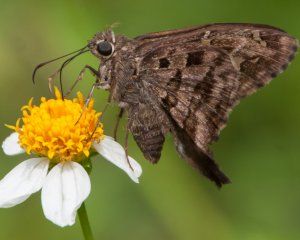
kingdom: Animalia
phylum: Arthropoda
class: Insecta
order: Lepidoptera
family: Hesperiidae
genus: Urbanus
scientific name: Urbanus dorantes
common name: Dorantes Longtail
